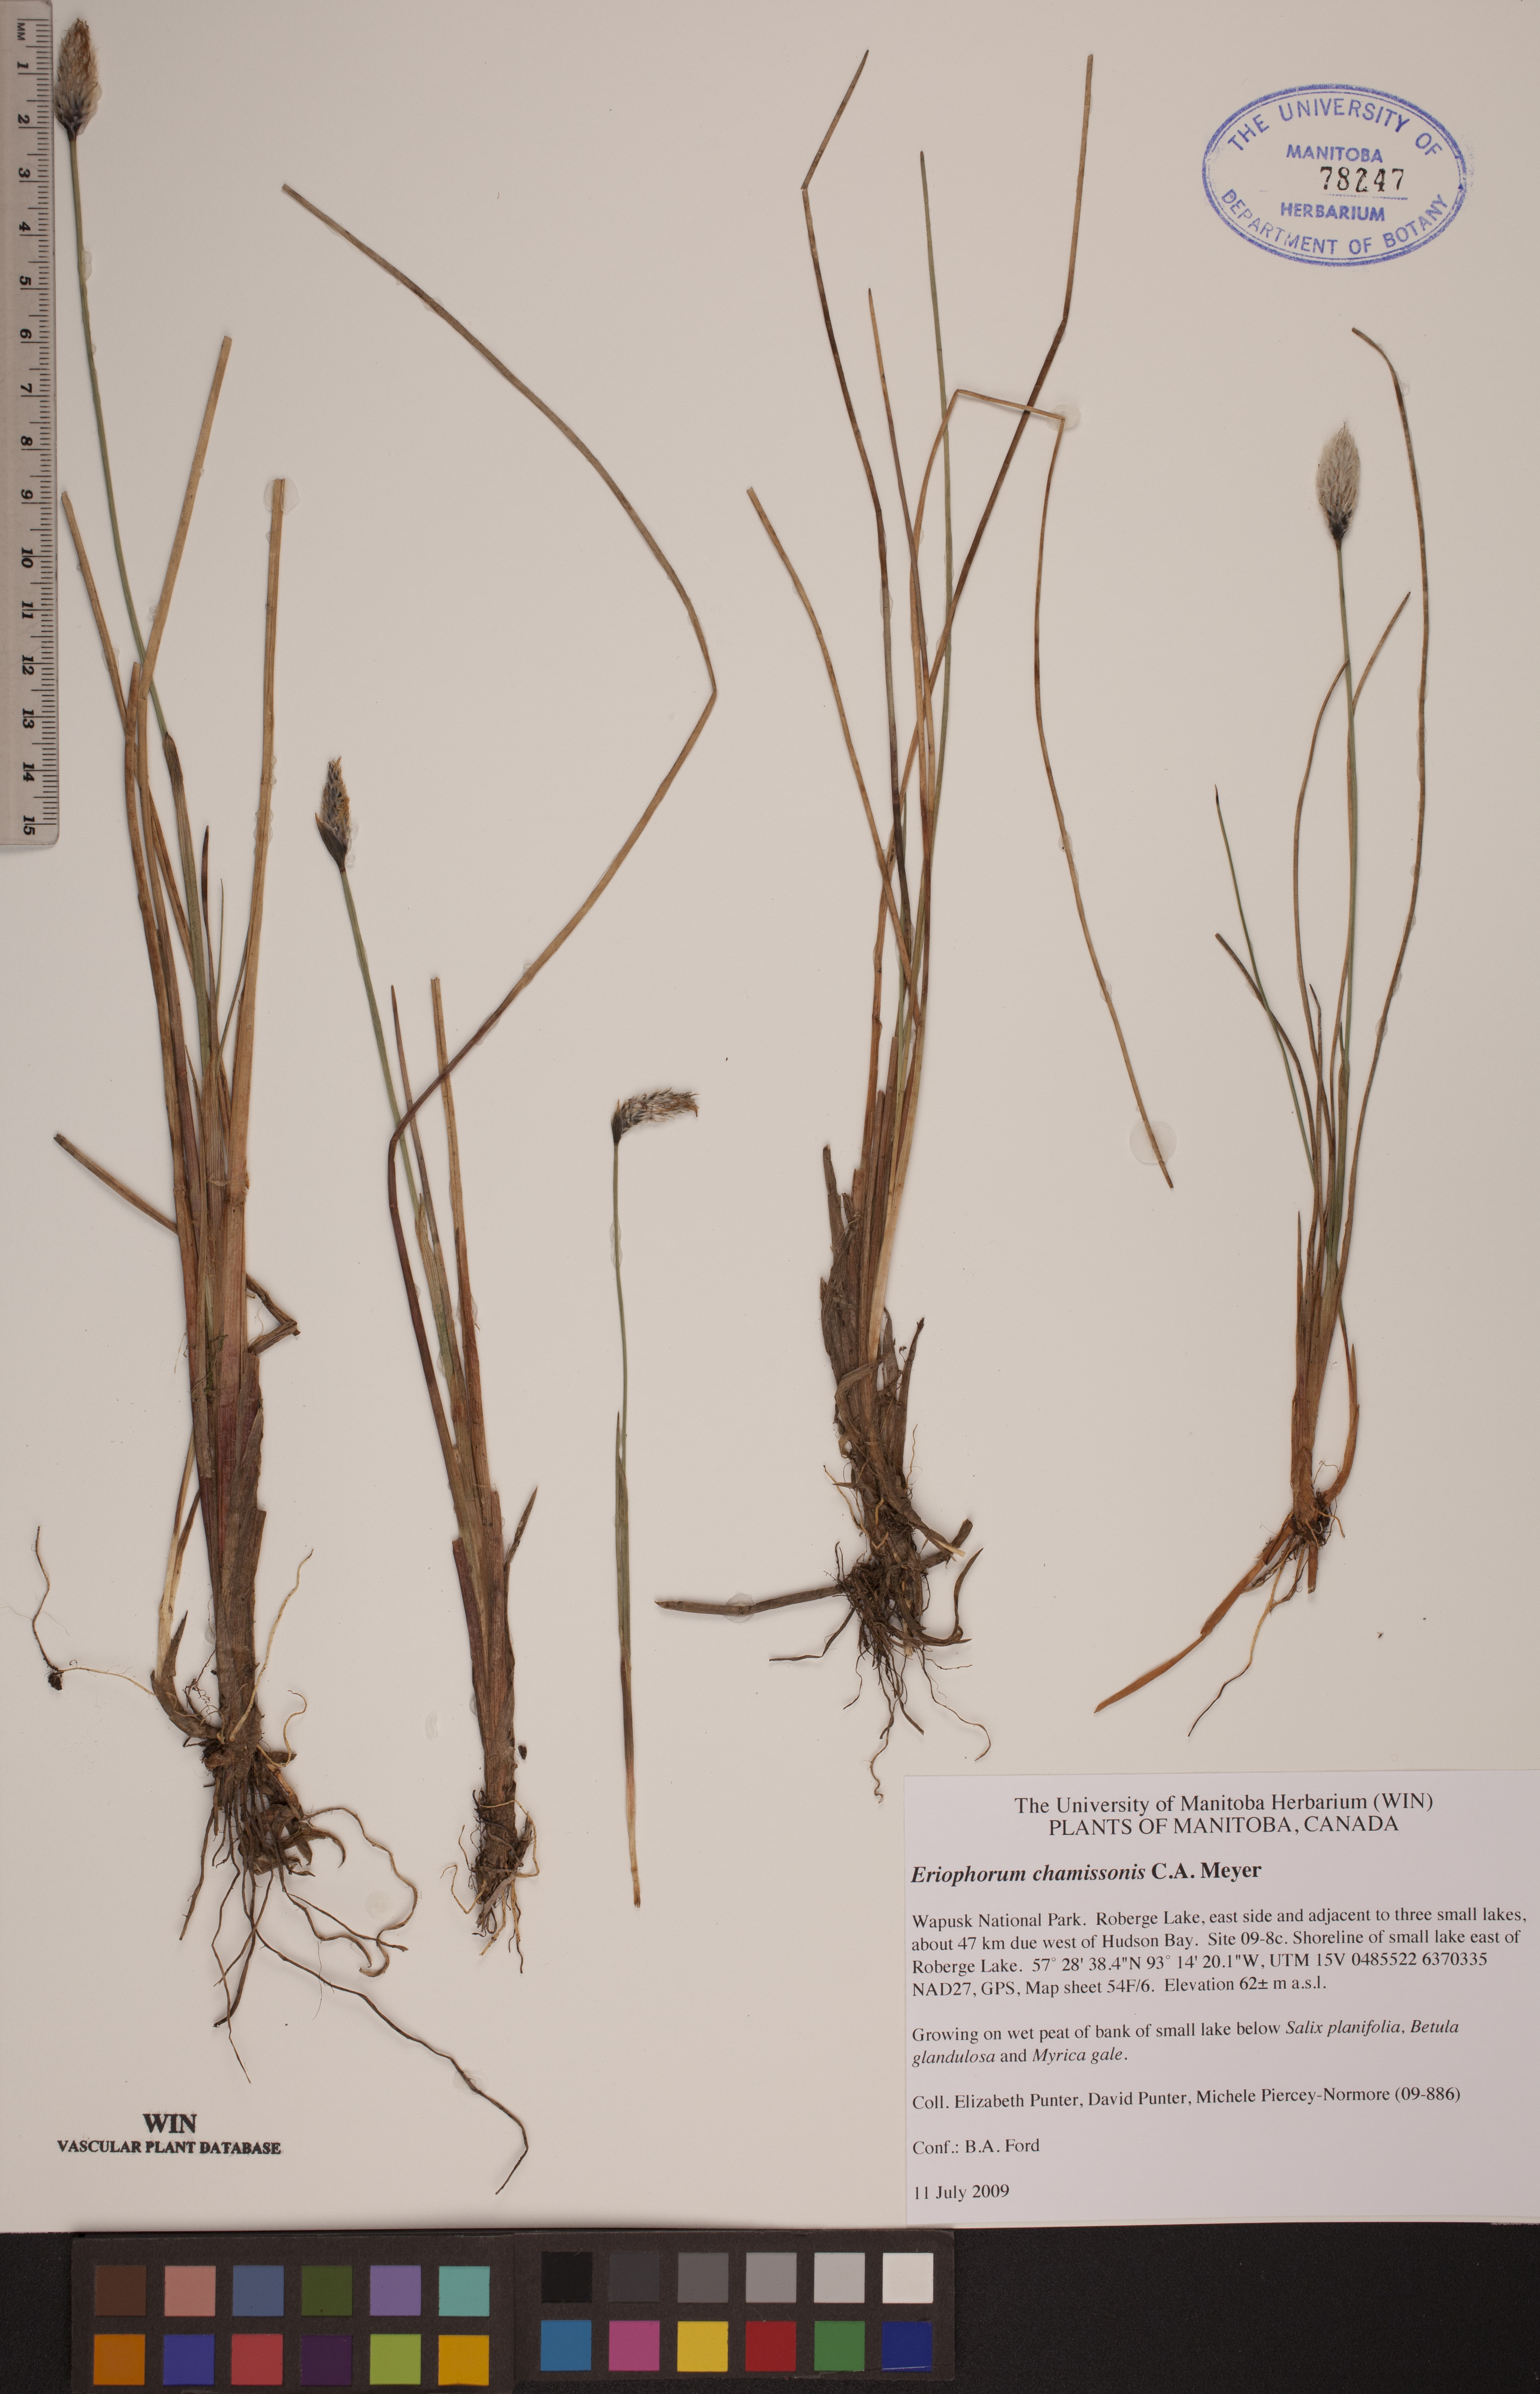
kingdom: Plantae
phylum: Tracheophyta
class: Liliopsida
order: Poales
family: Cyperaceae
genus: Eriophorum
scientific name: Eriophorum chamissonis
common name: Chamisso's cottongrass
